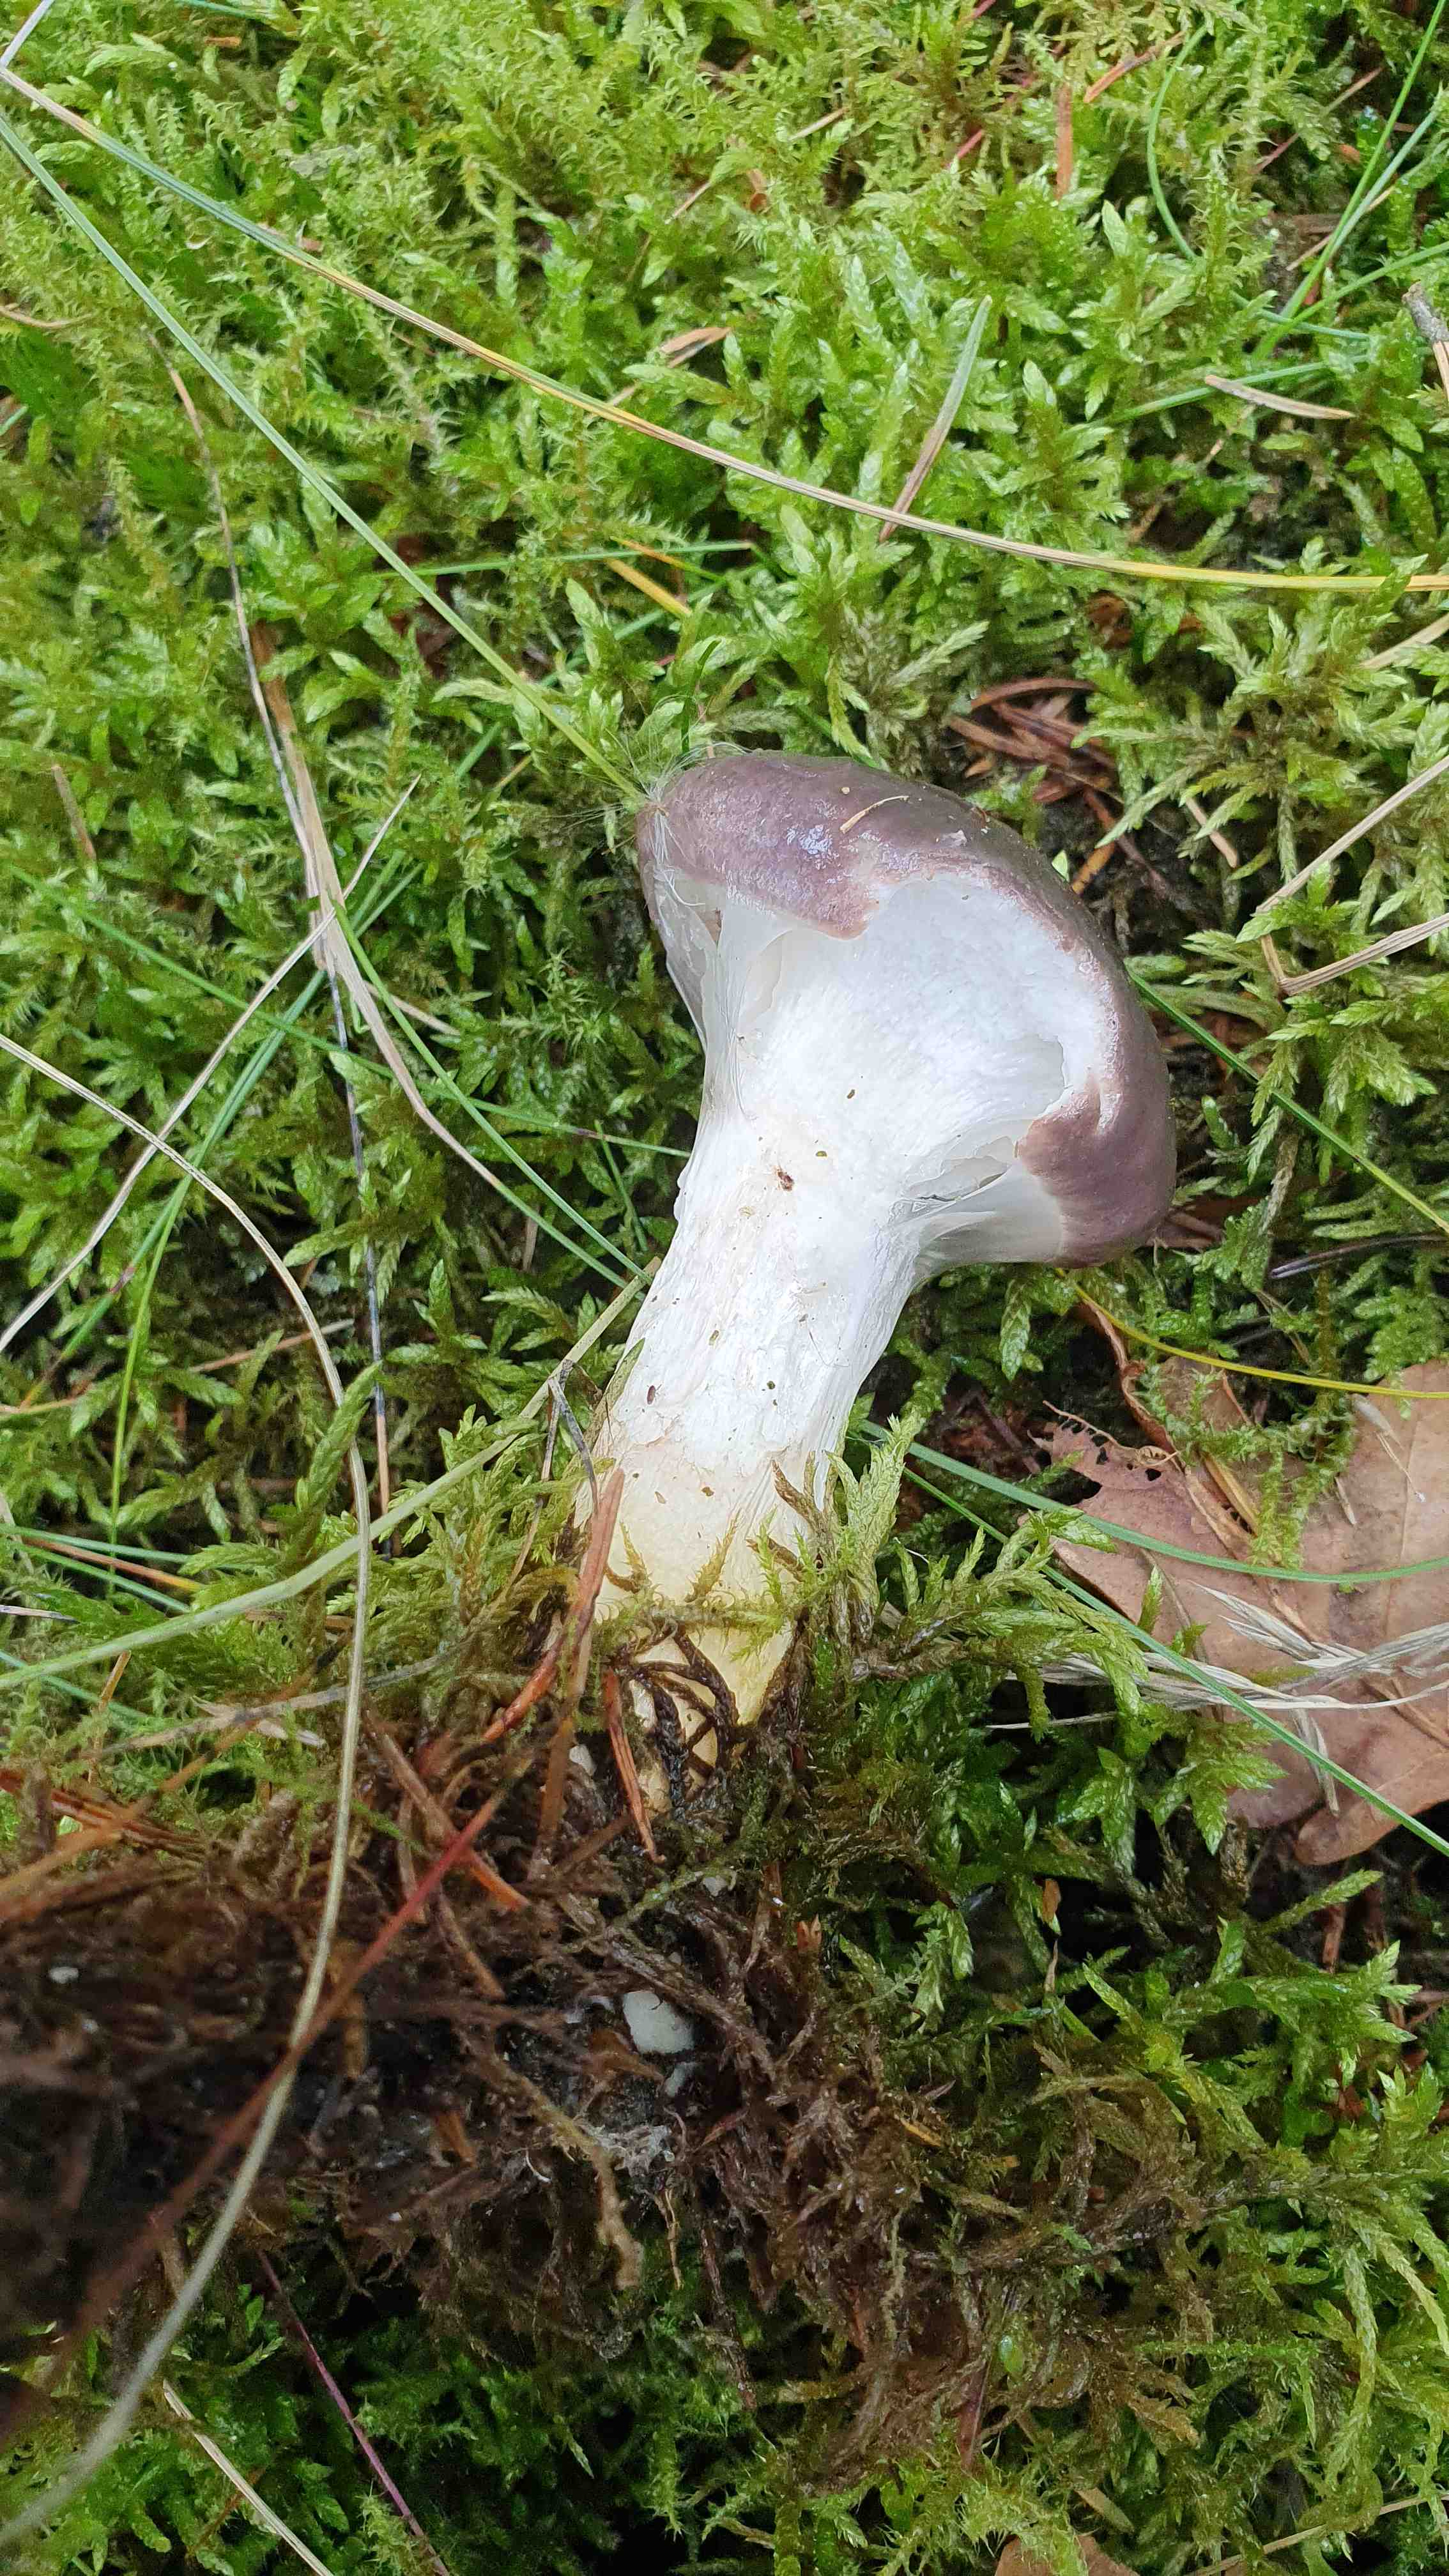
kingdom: Fungi
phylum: Basidiomycota
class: Agaricomycetes
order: Boletales
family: Gomphidiaceae
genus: Gomphidius
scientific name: Gomphidius glutinosus
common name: grå slimslør
